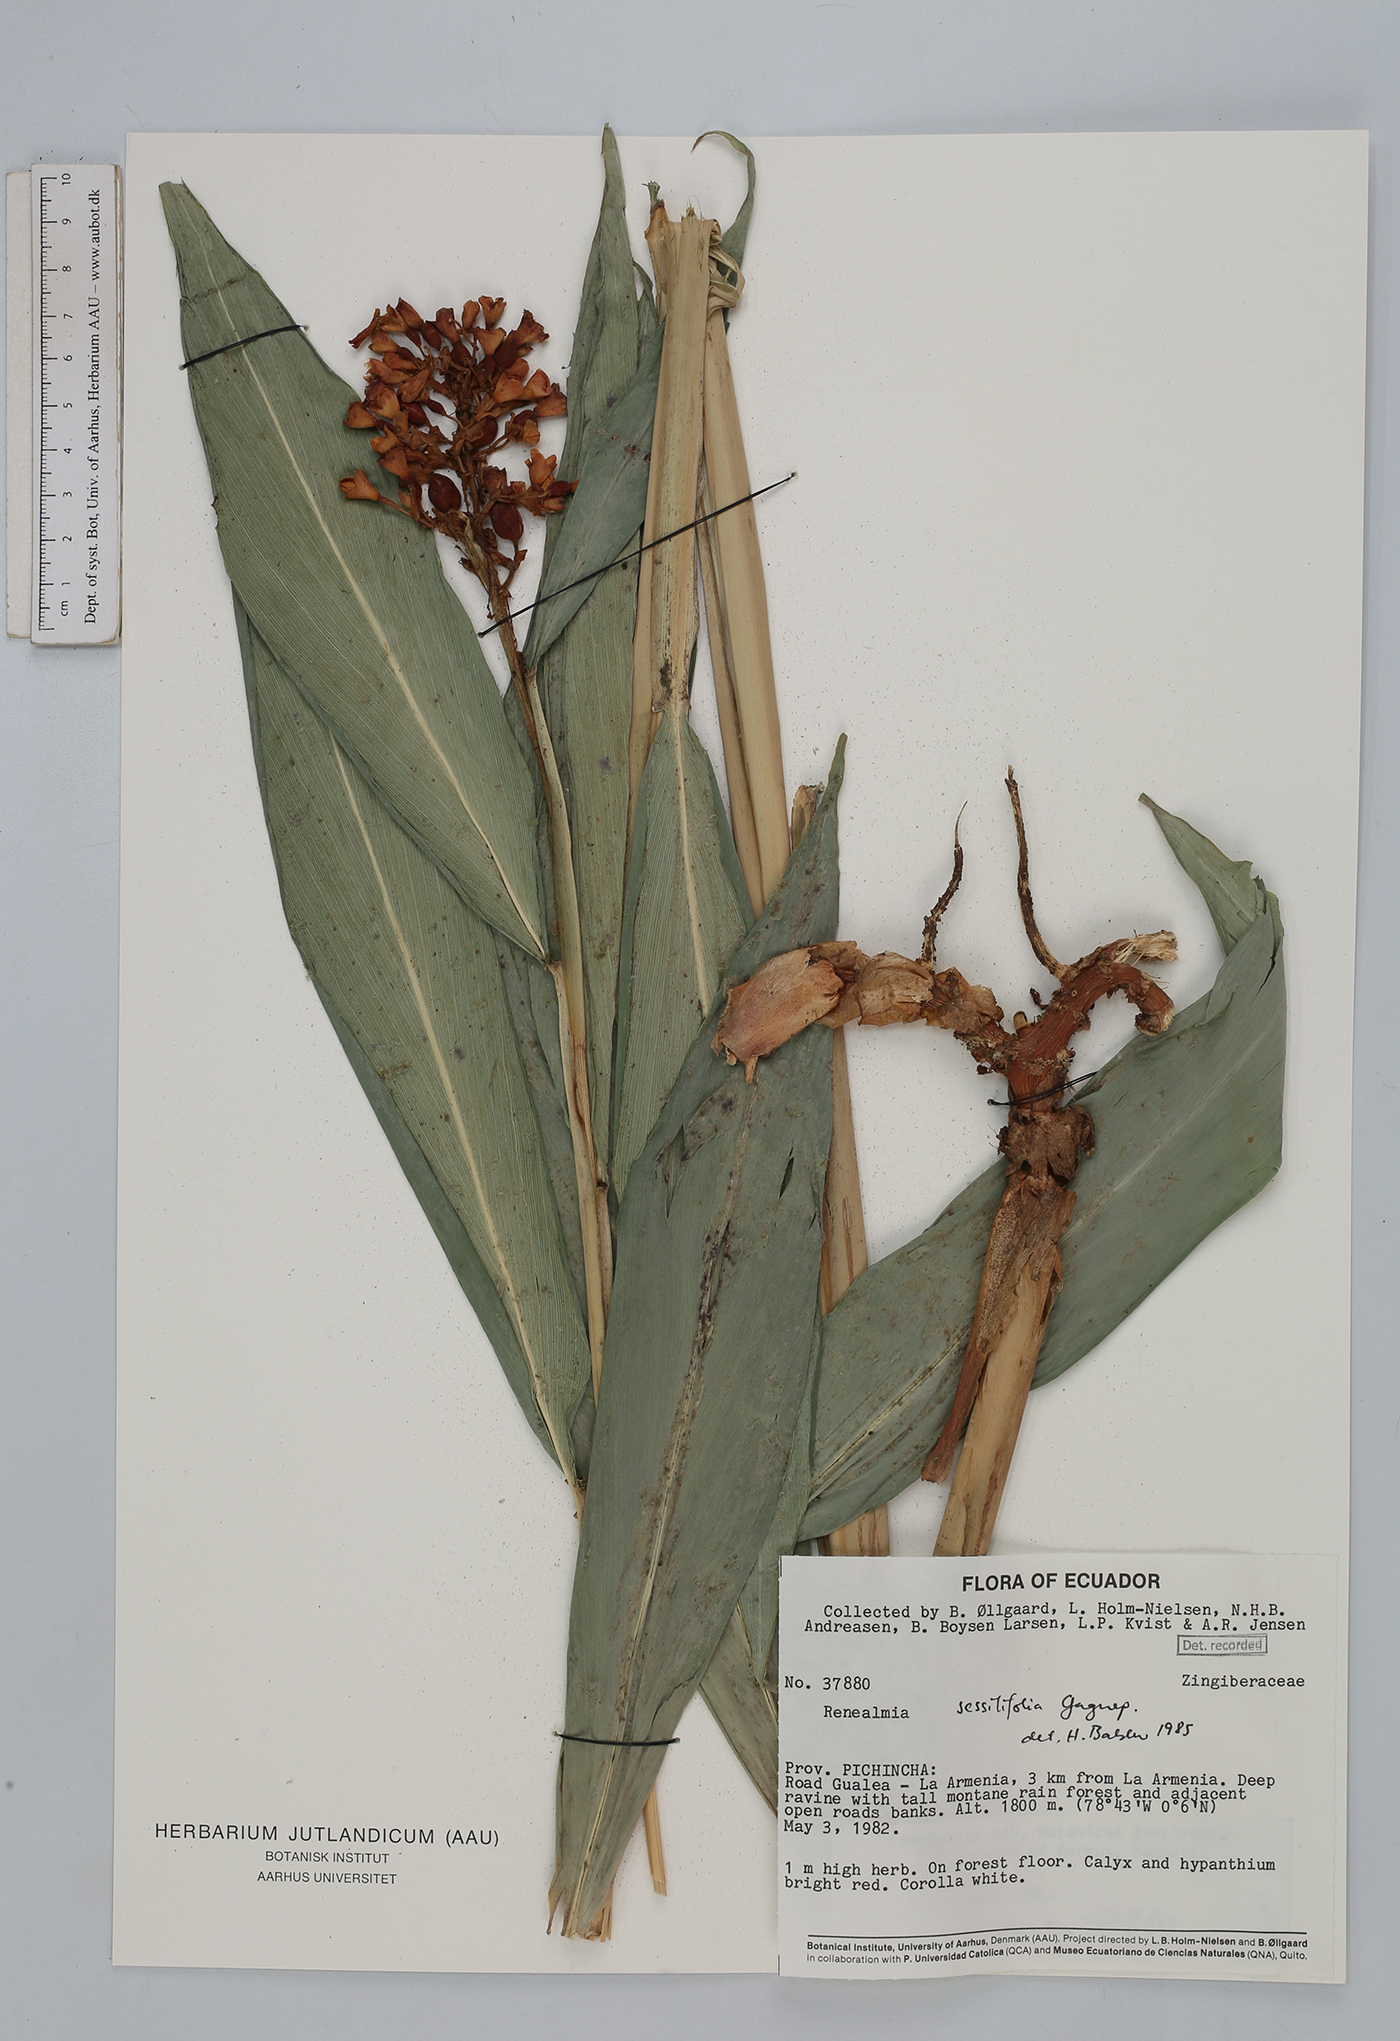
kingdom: Plantae
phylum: Tracheophyta
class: Liliopsida
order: Zingiberales
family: Zingiberaceae
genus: Renealmia
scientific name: Renealmia sessilifolia
